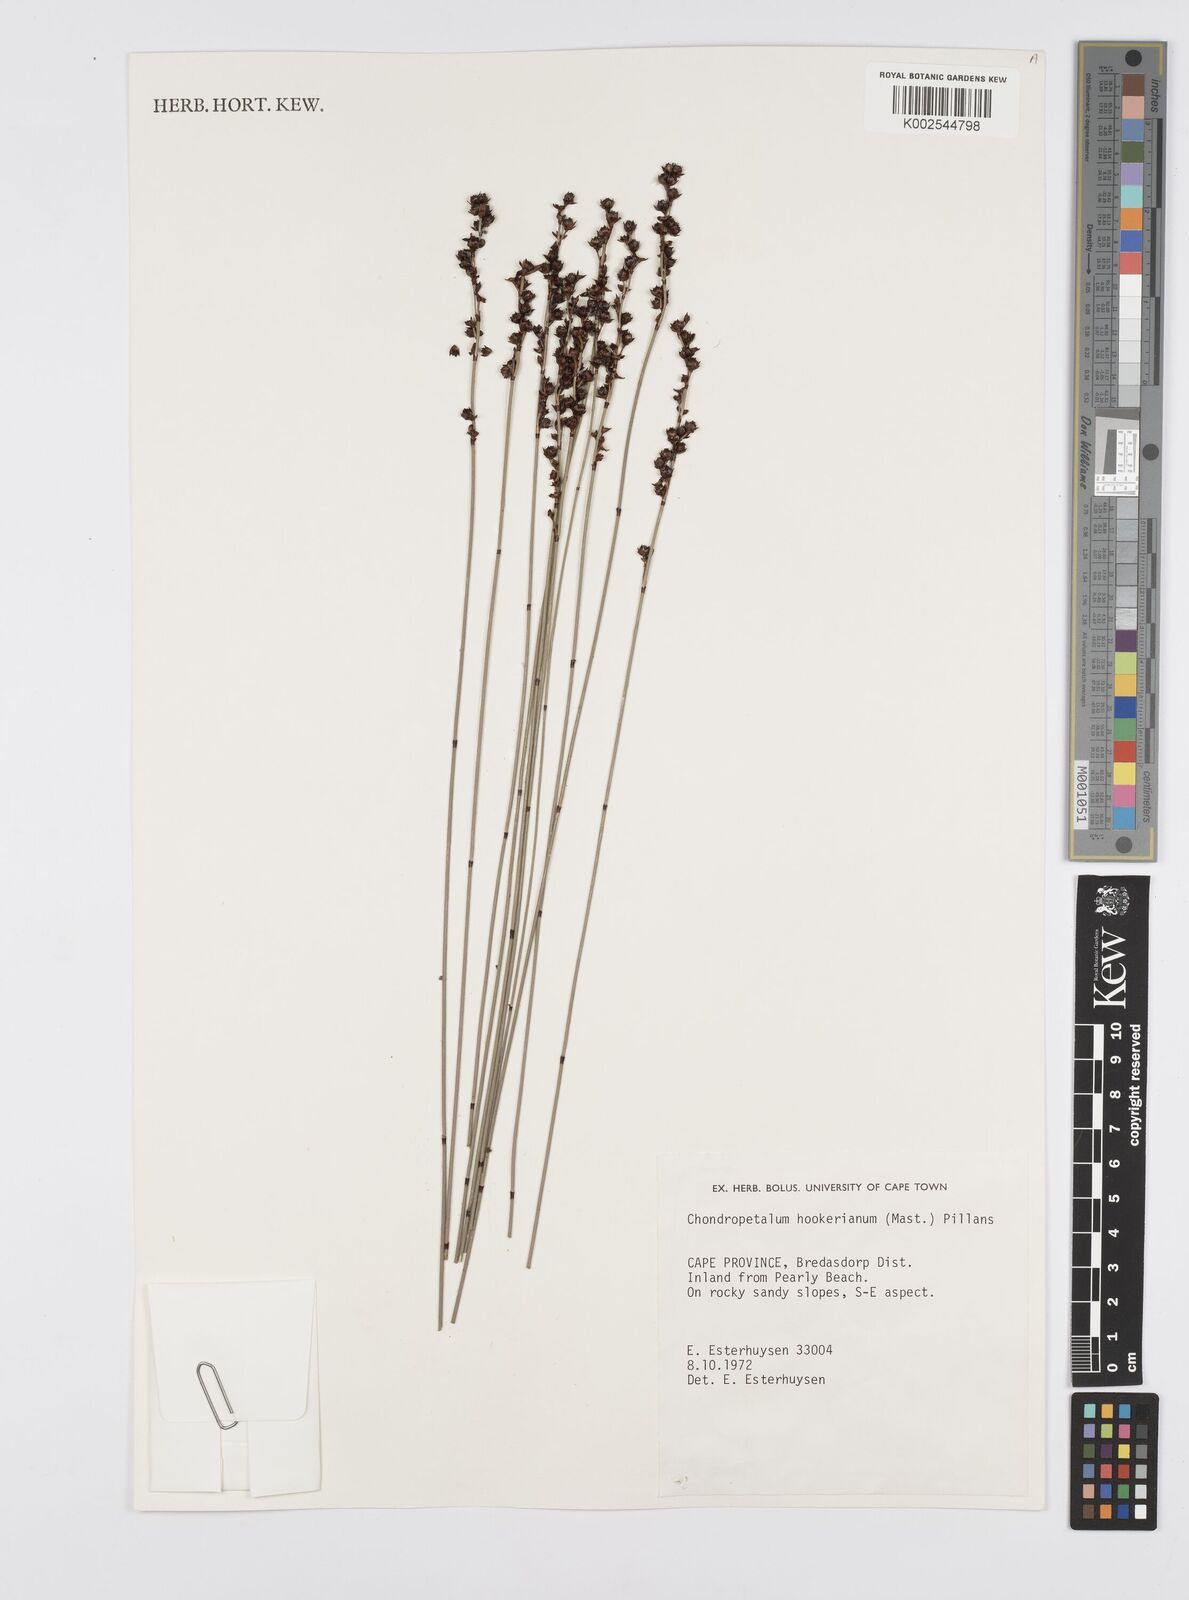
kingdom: Plantae
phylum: Tracheophyta
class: Liliopsida
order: Poales
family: Restionaceae
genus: Elegia
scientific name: Elegia hookeriana
